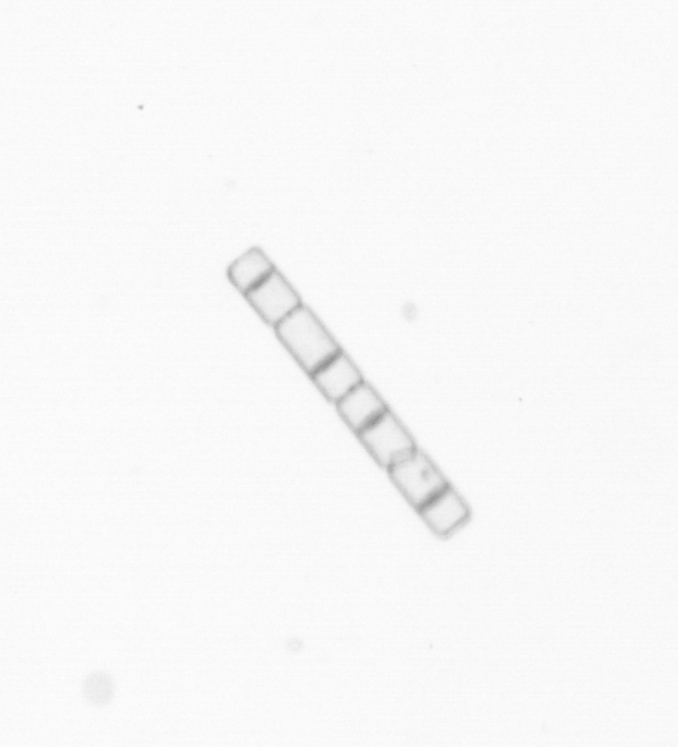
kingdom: Chromista
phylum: Ochrophyta
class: Bacillariophyceae
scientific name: Bacillariophyceae
